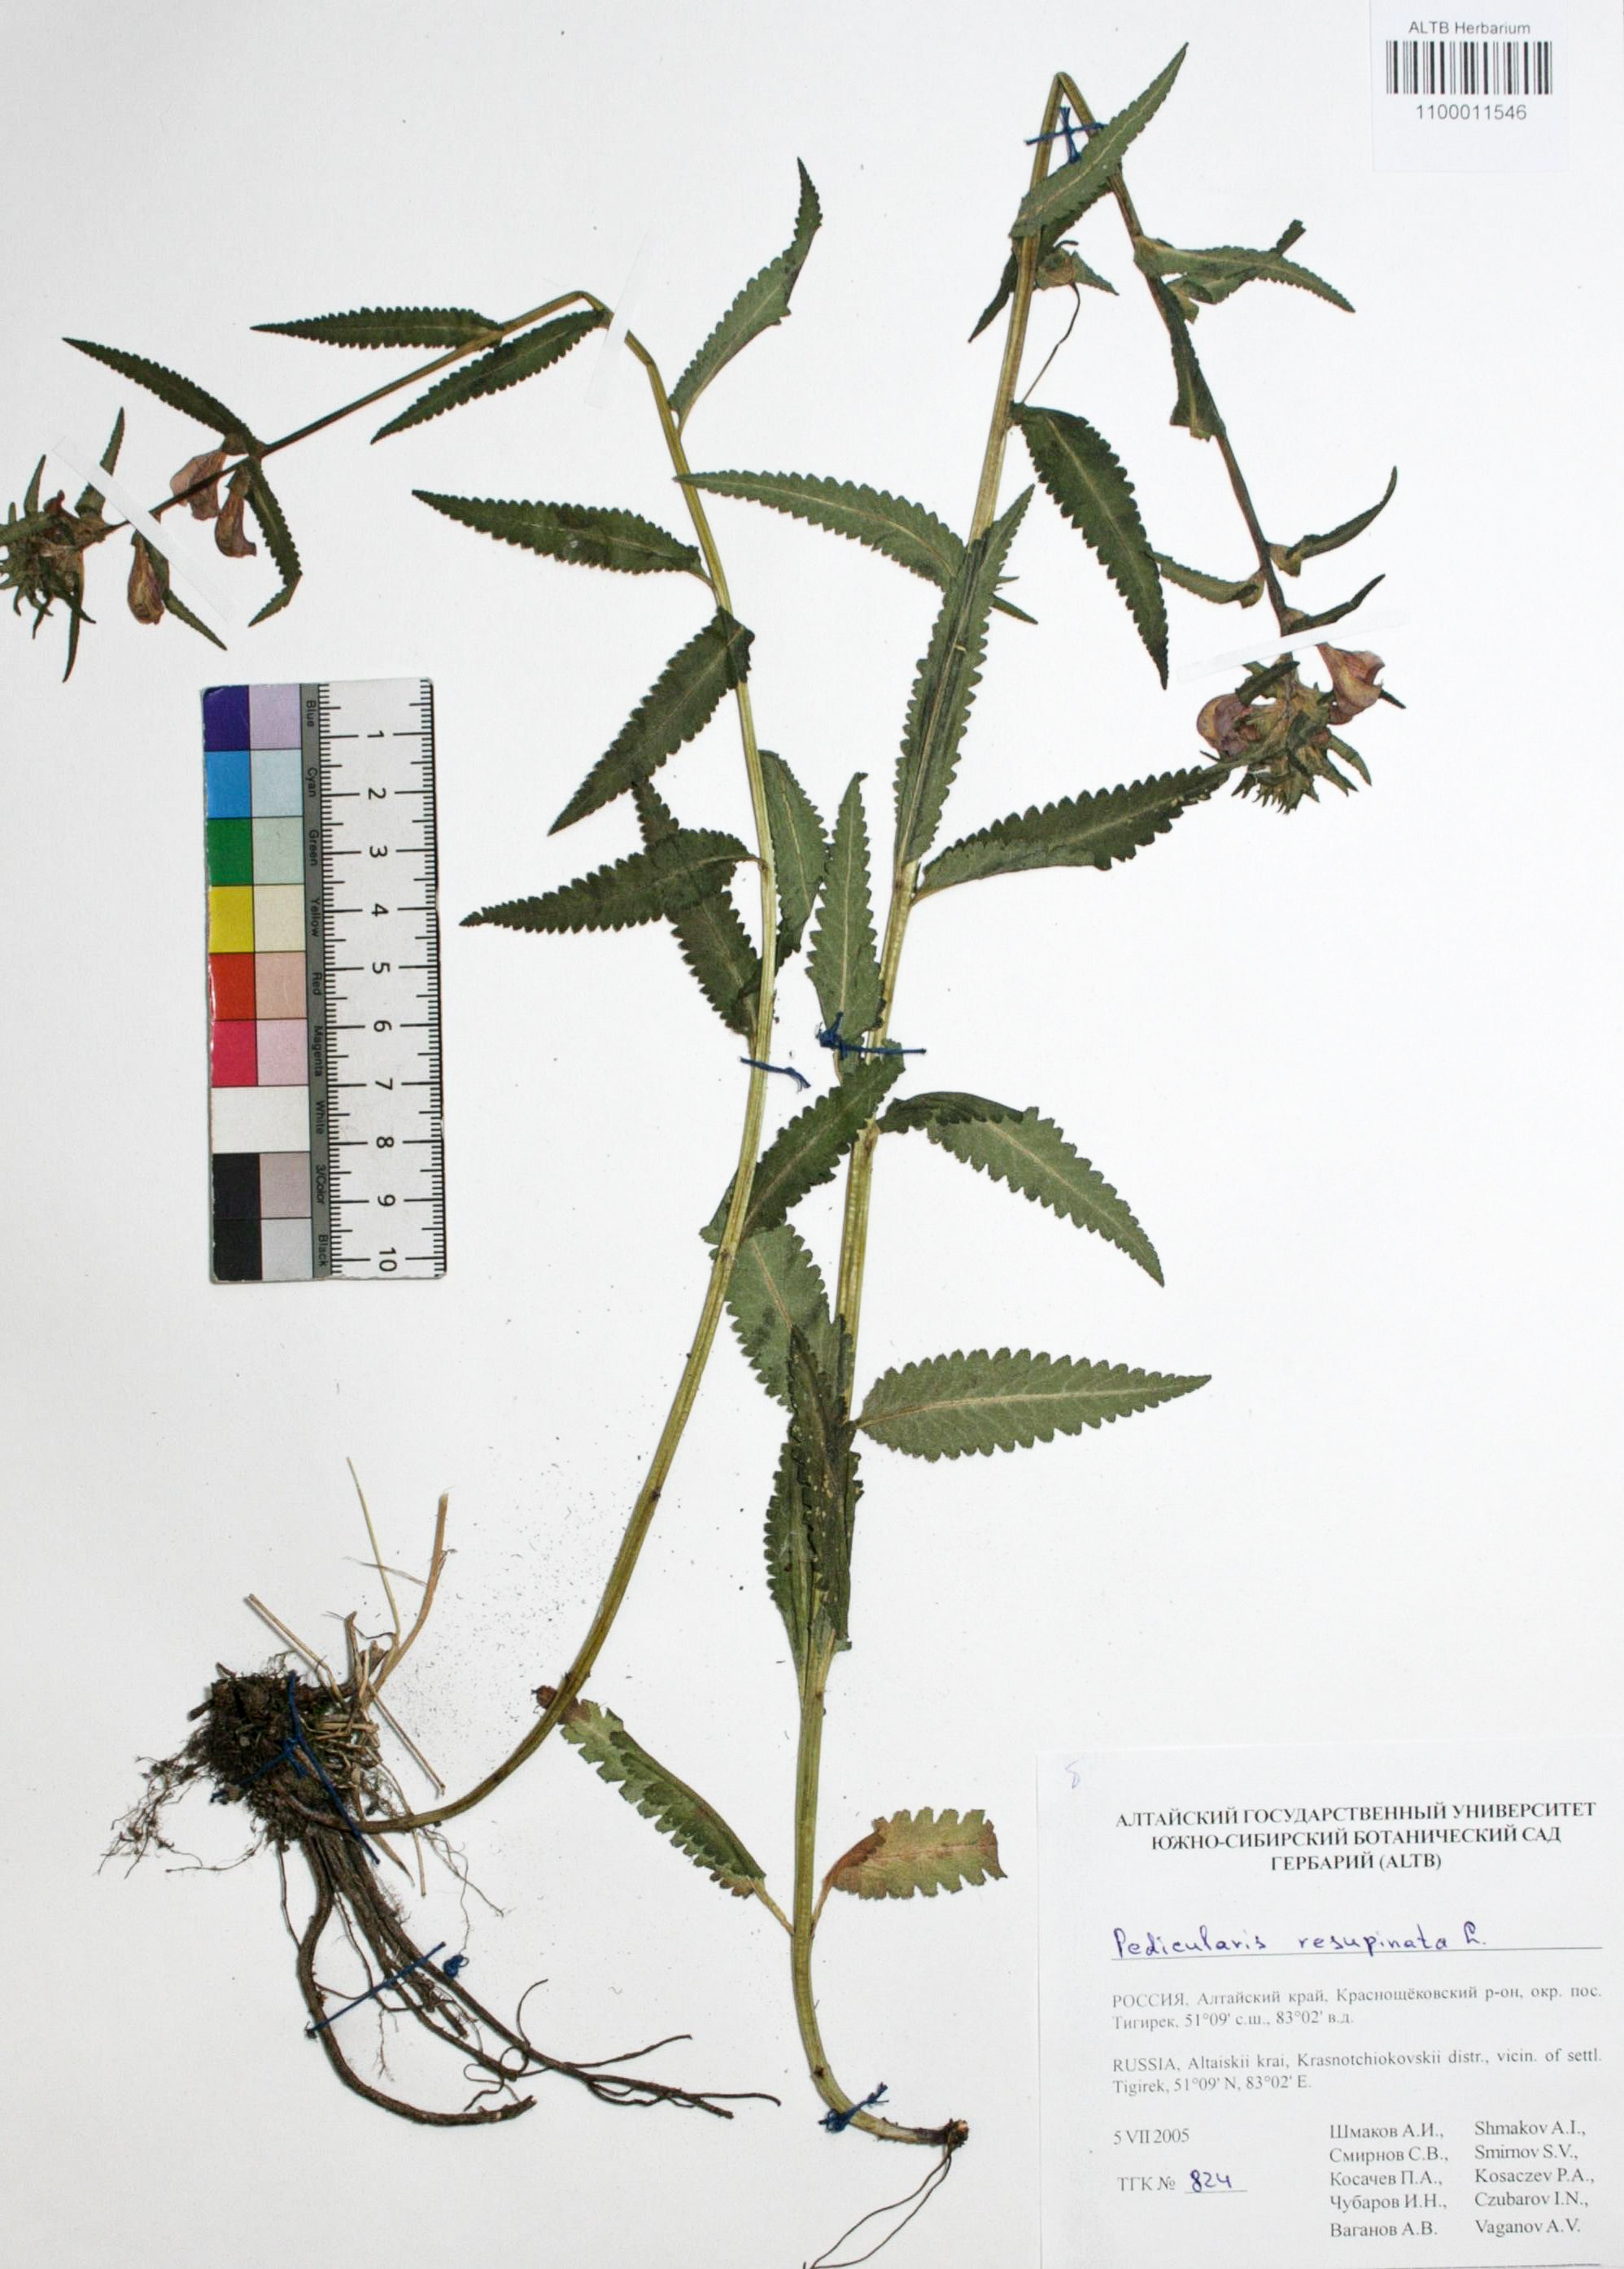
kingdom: Plantae
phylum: Tracheophyta
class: Magnoliopsida
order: Lamiales
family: Orobanchaceae
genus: Pedicularis
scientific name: Pedicularis resupinata
